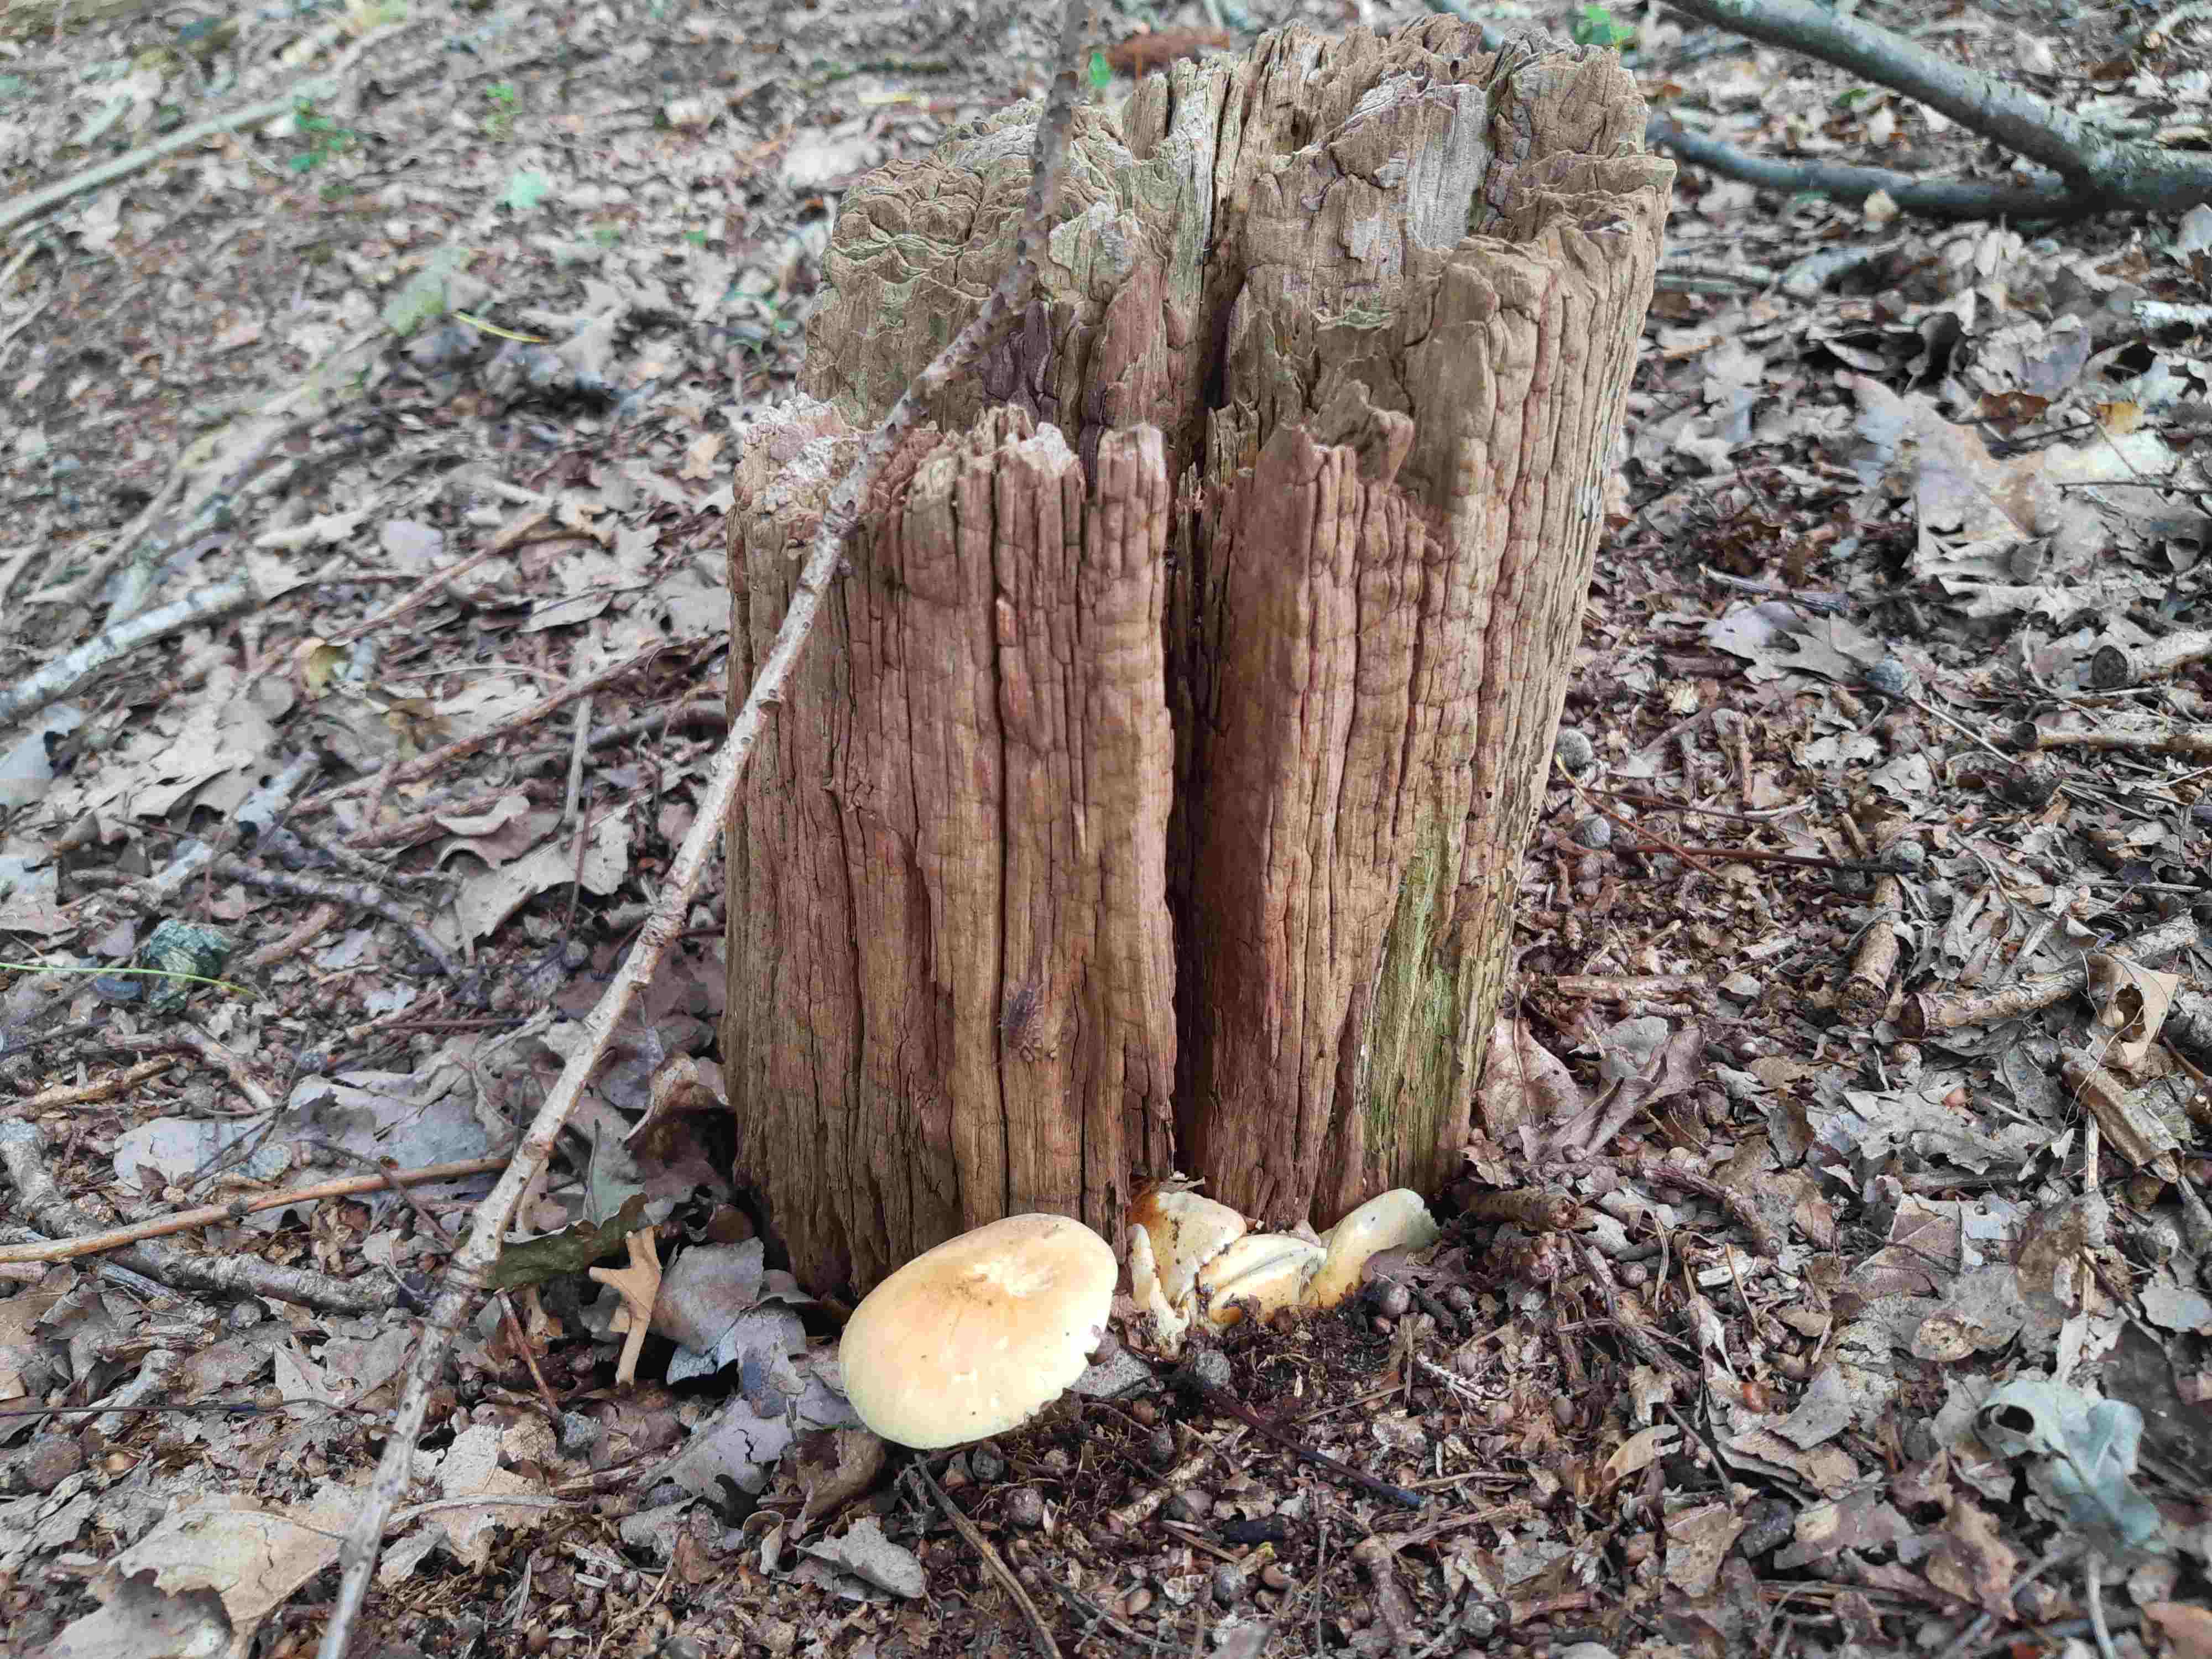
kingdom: Fungi
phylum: Basidiomycota
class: Agaricomycetes
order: Agaricales
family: Strophariaceae
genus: Hypholoma
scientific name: Hypholoma fasciculare
